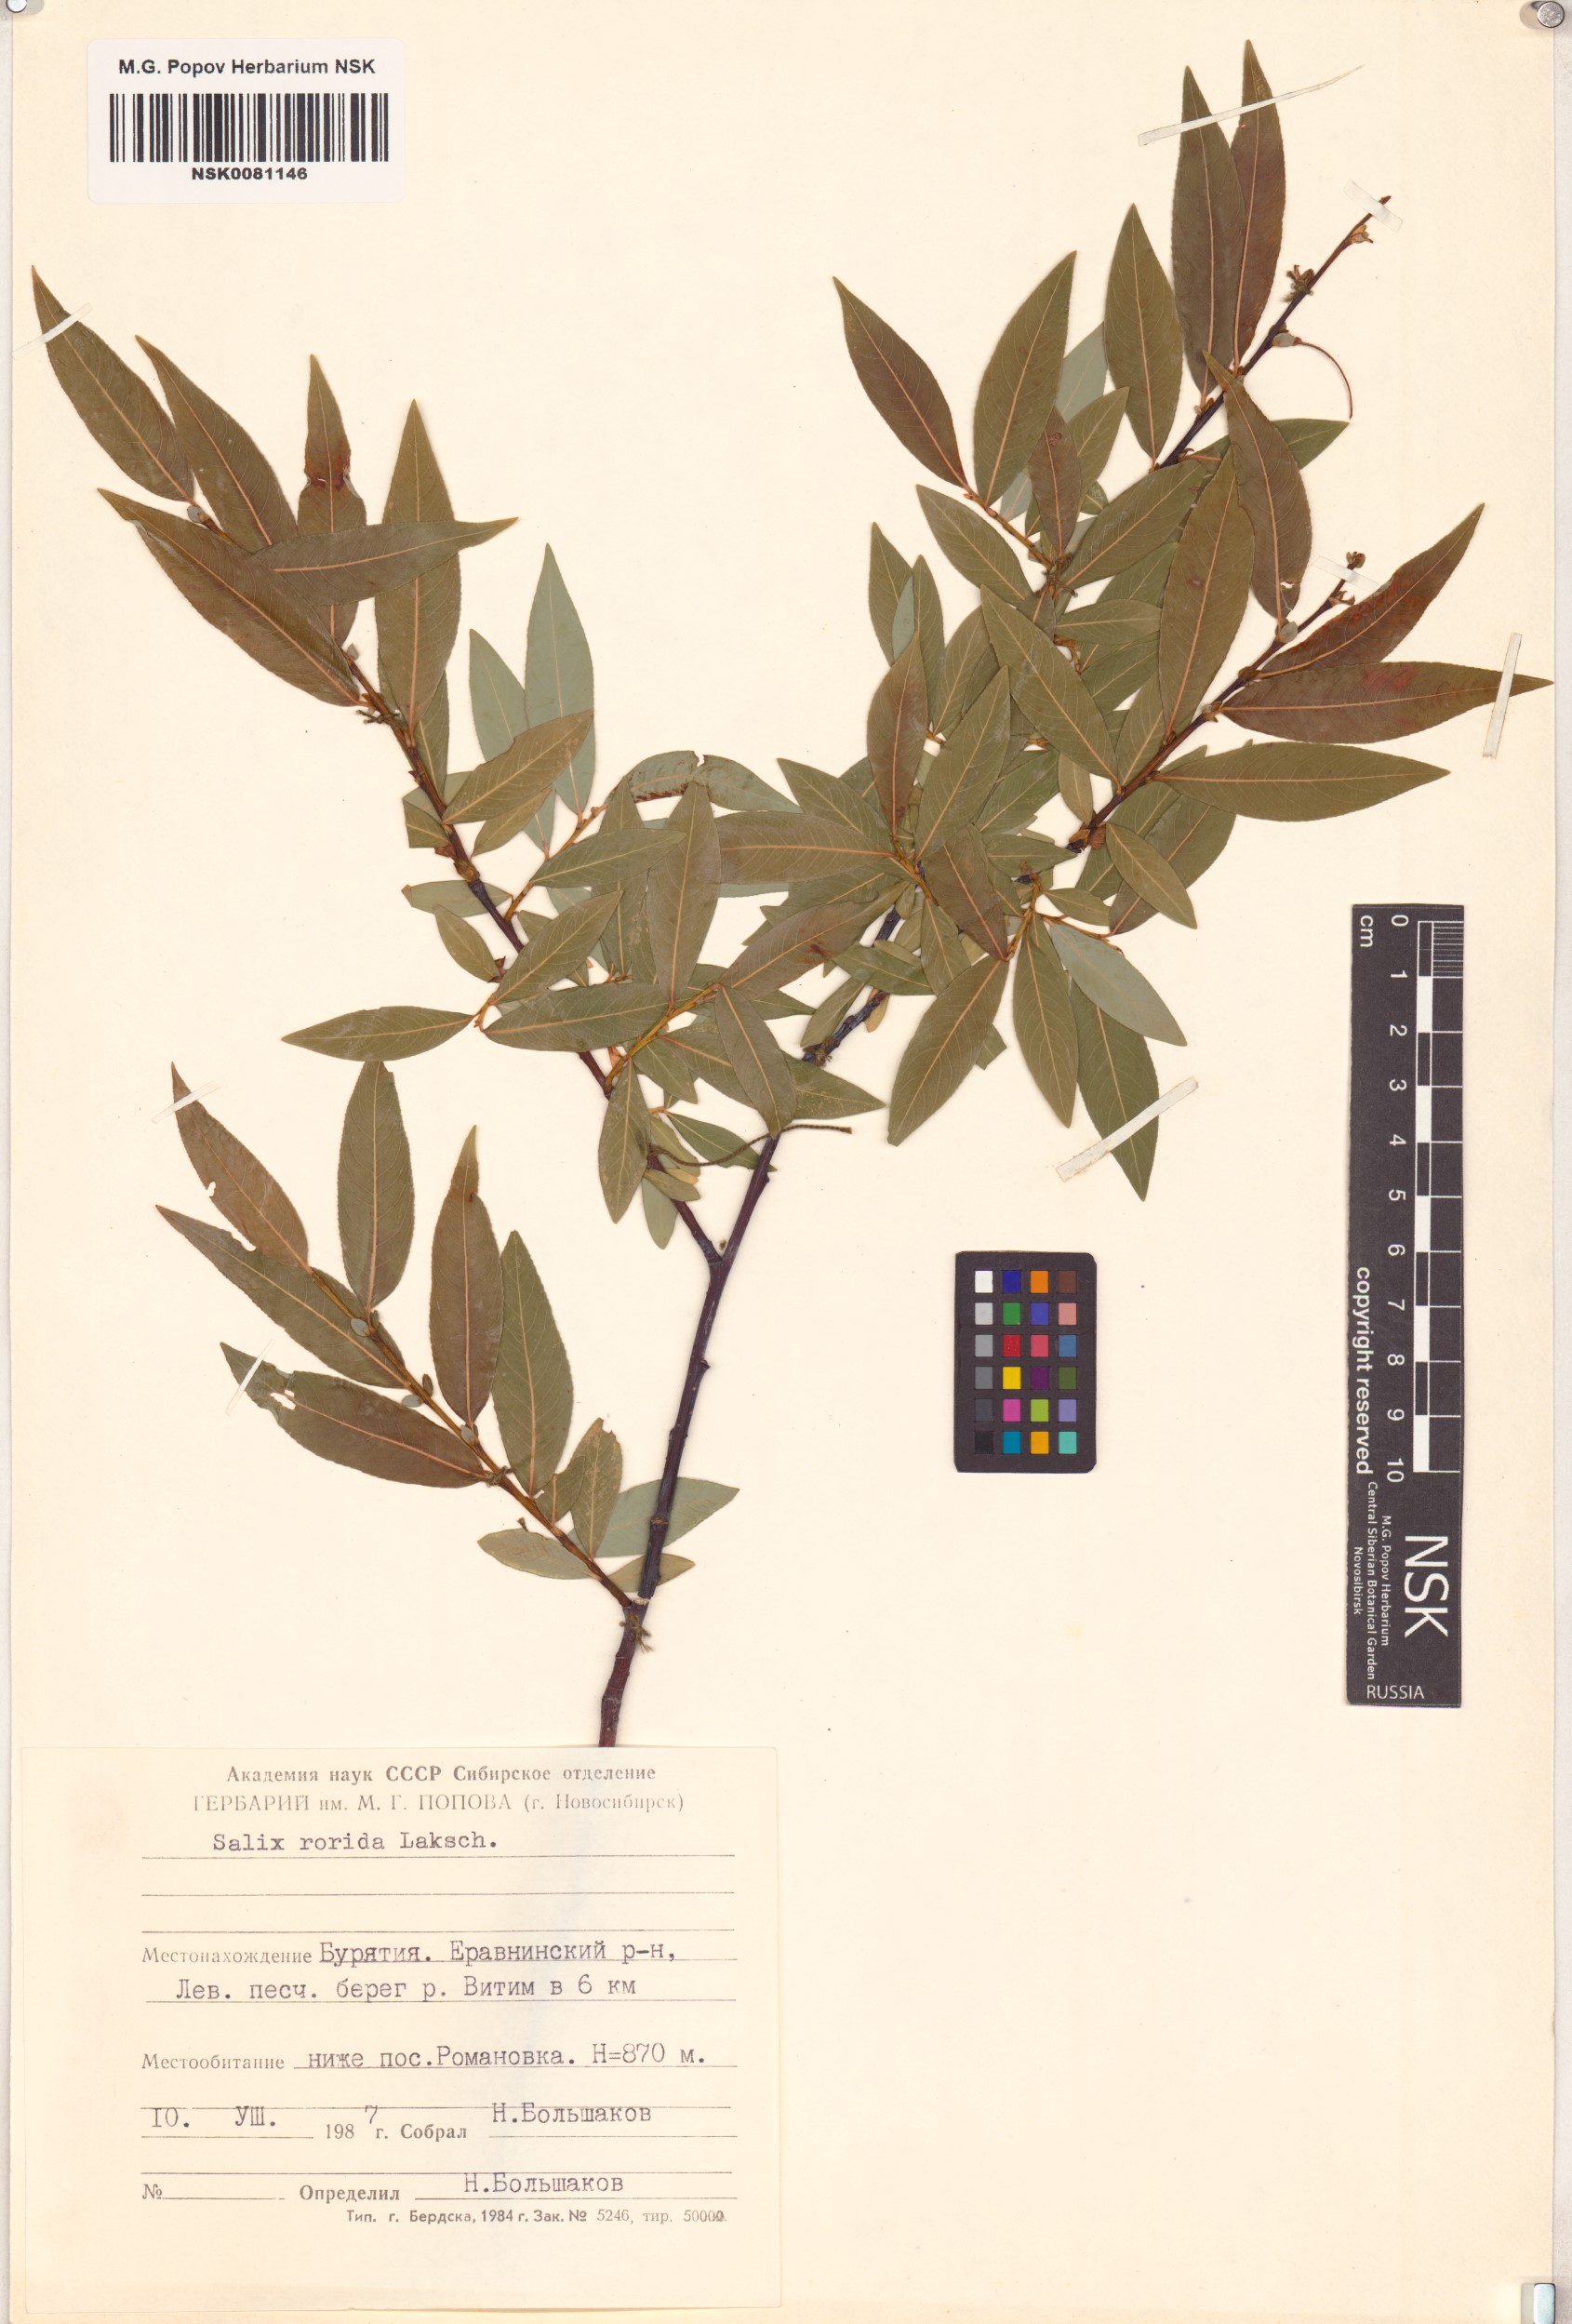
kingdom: Plantae
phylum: Tracheophyta
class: Magnoliopsida
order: Malpighiales
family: Salicaceae
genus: Salix
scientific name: Salix rorida
